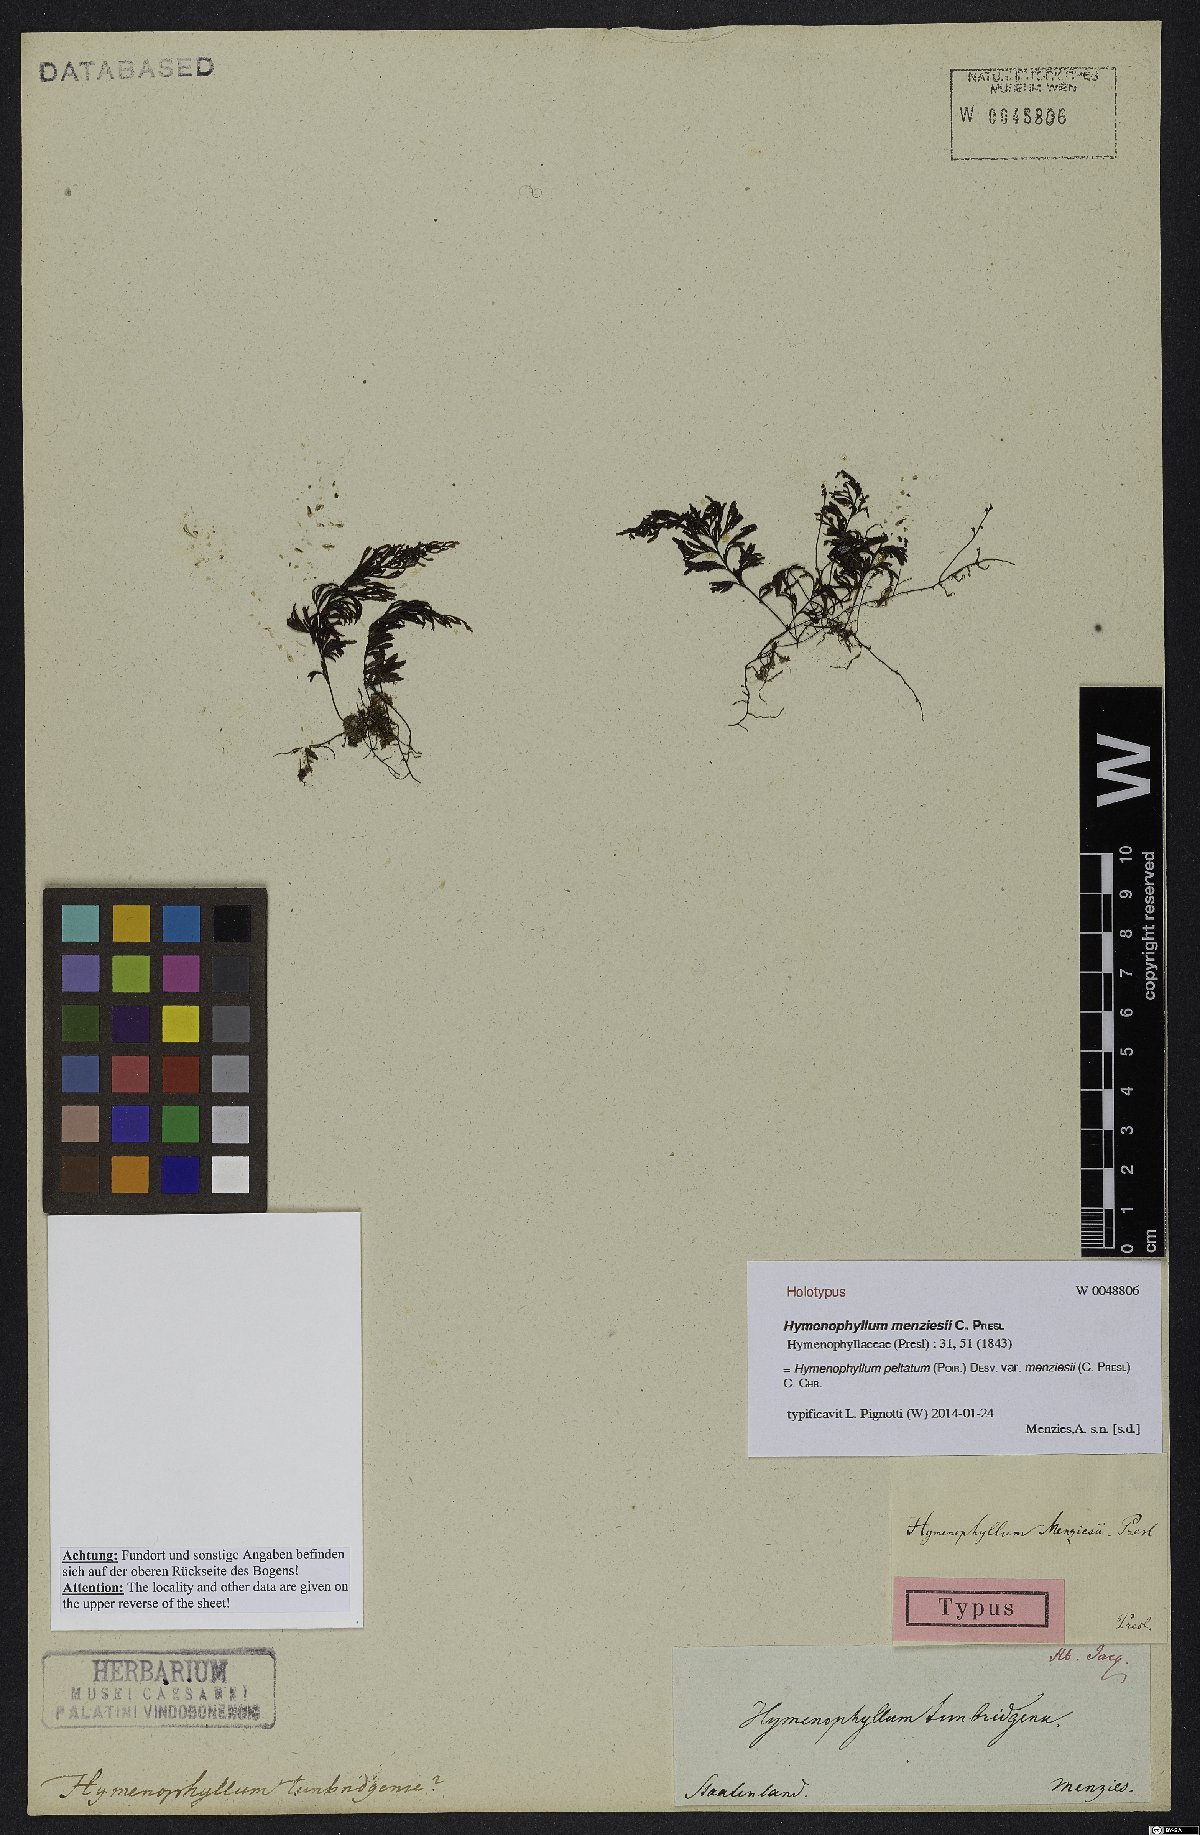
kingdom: Plantae
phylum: Tracheophyta
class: Polypodiopsida
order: Hymenophyllales
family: Hymenophyllaceae
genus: Hymenophyllum
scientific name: Hymenophyllum peltatum
